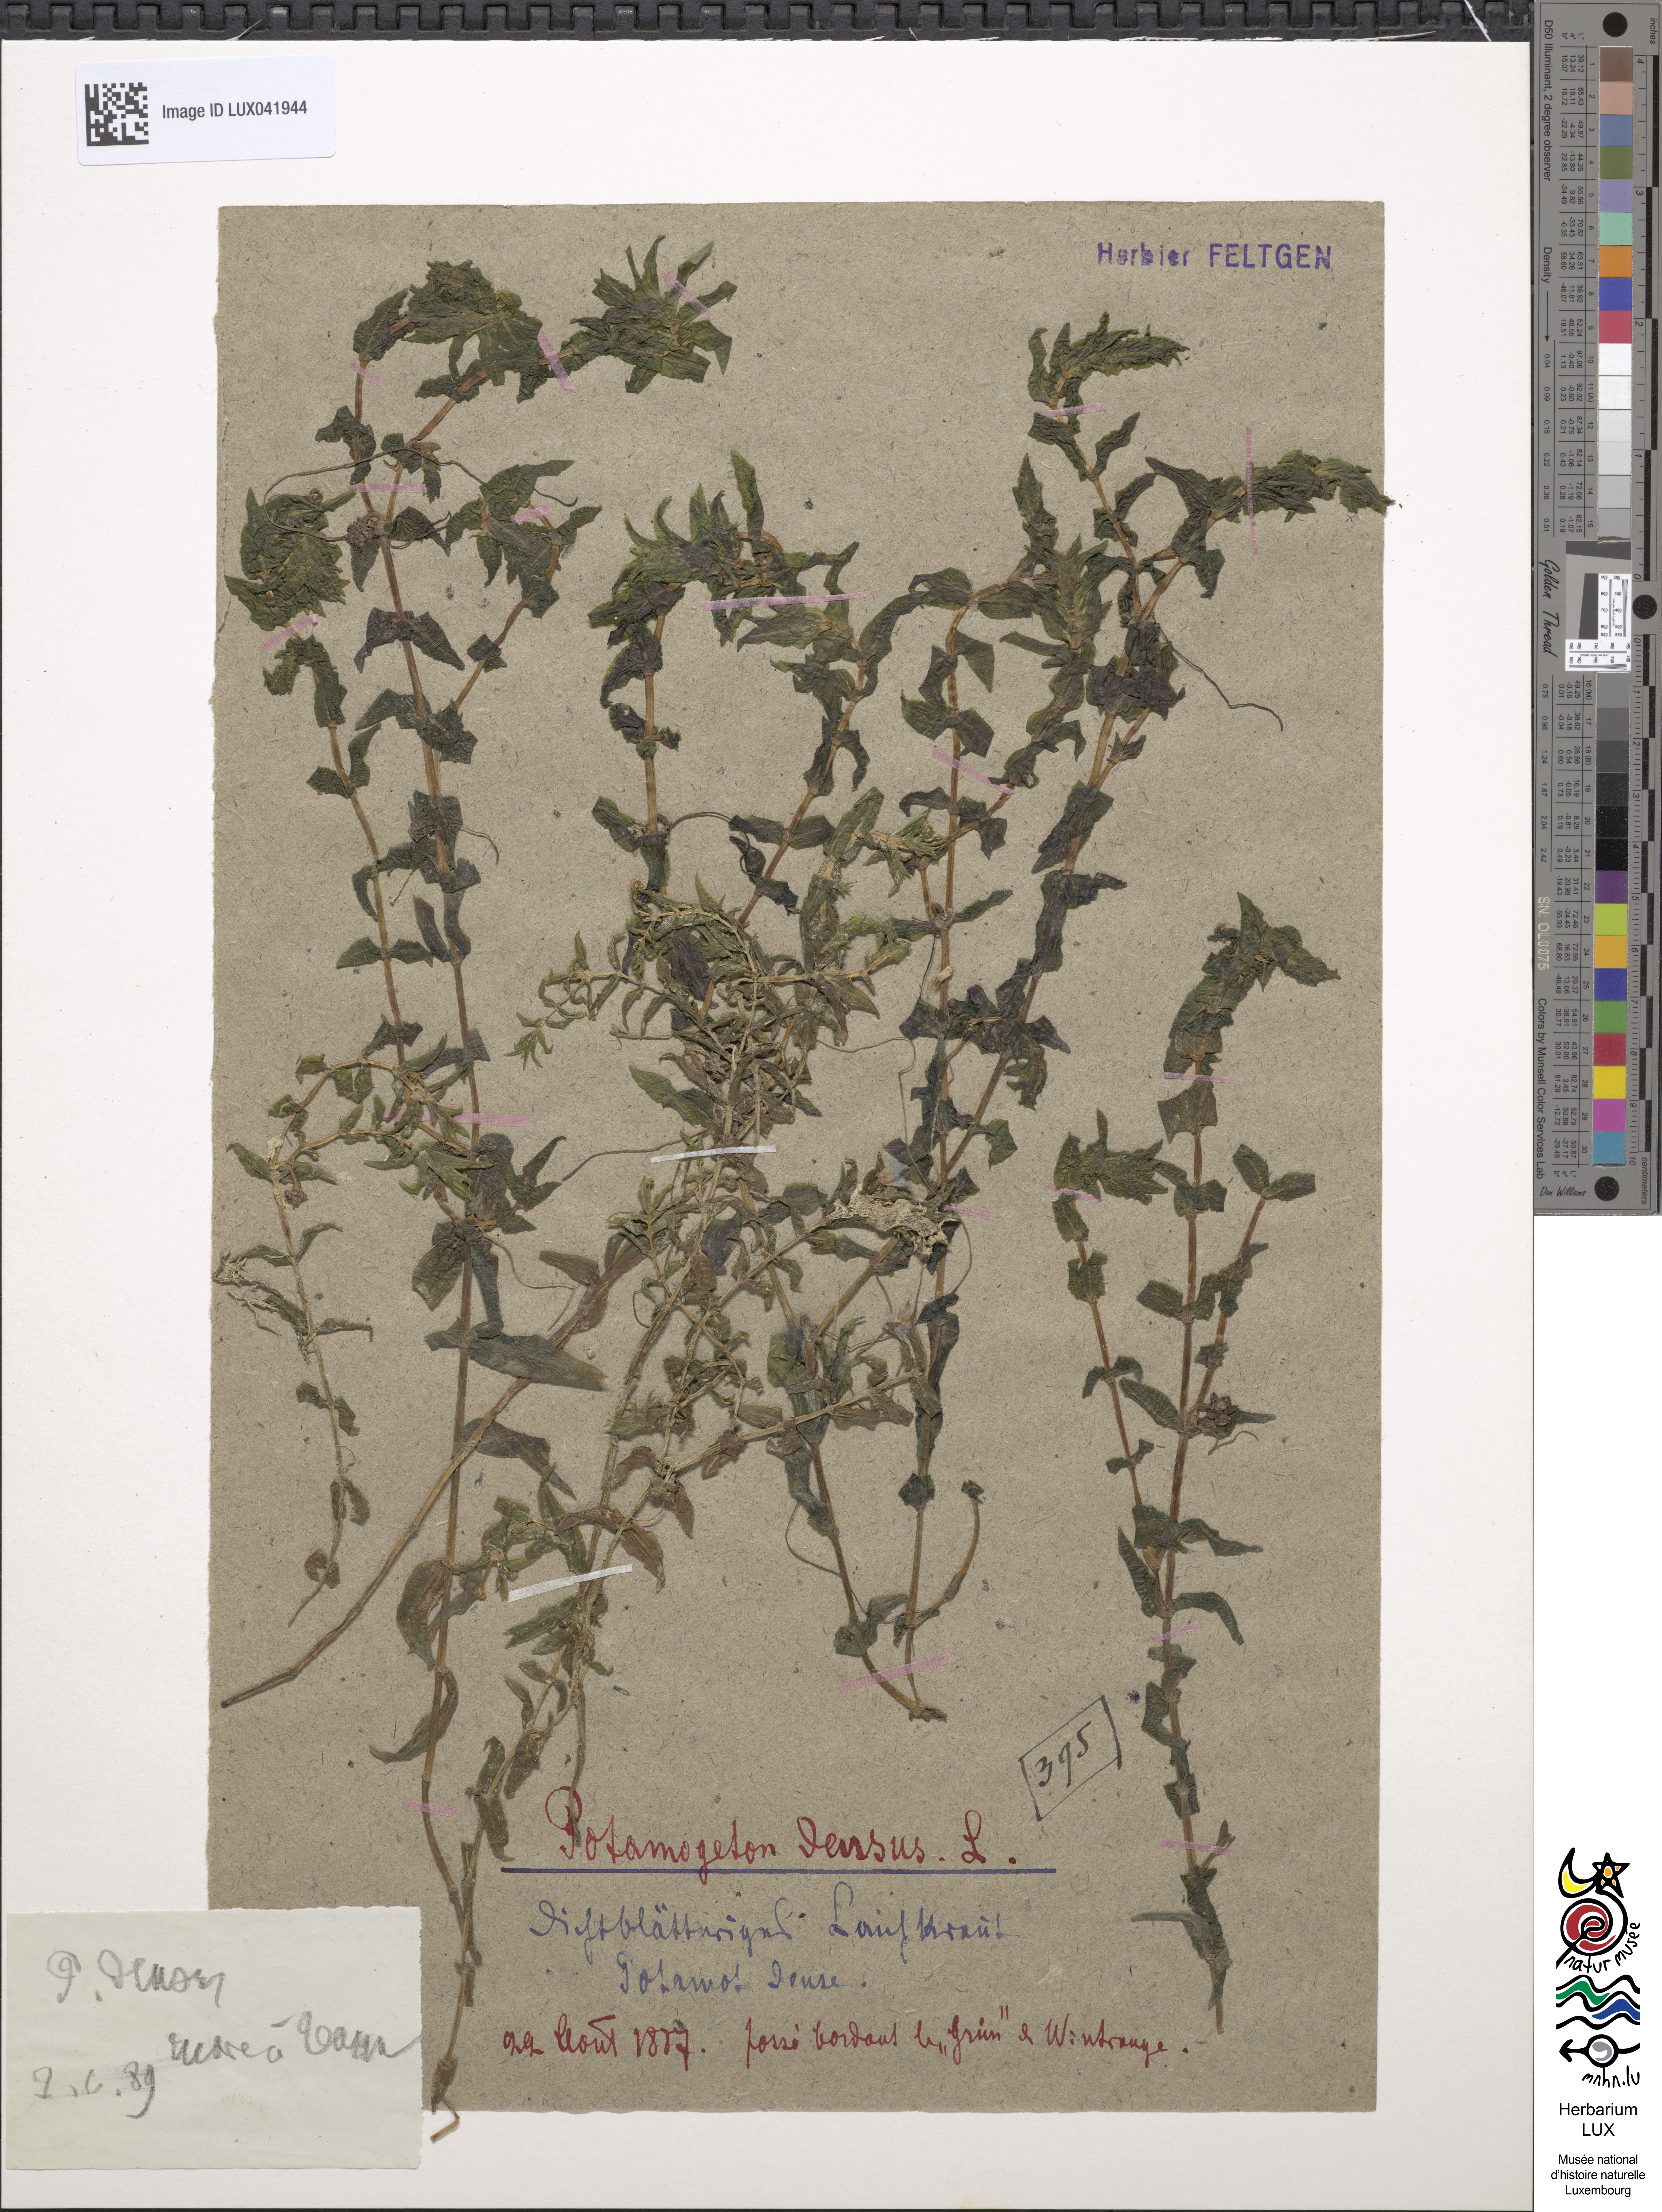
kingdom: Plantae
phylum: Tracheophyta
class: Liliopsida
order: Alismatales
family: Potamogetonaceae
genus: Groenlandia
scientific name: Groenlandia densa
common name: Opposite-leaved pondweed
